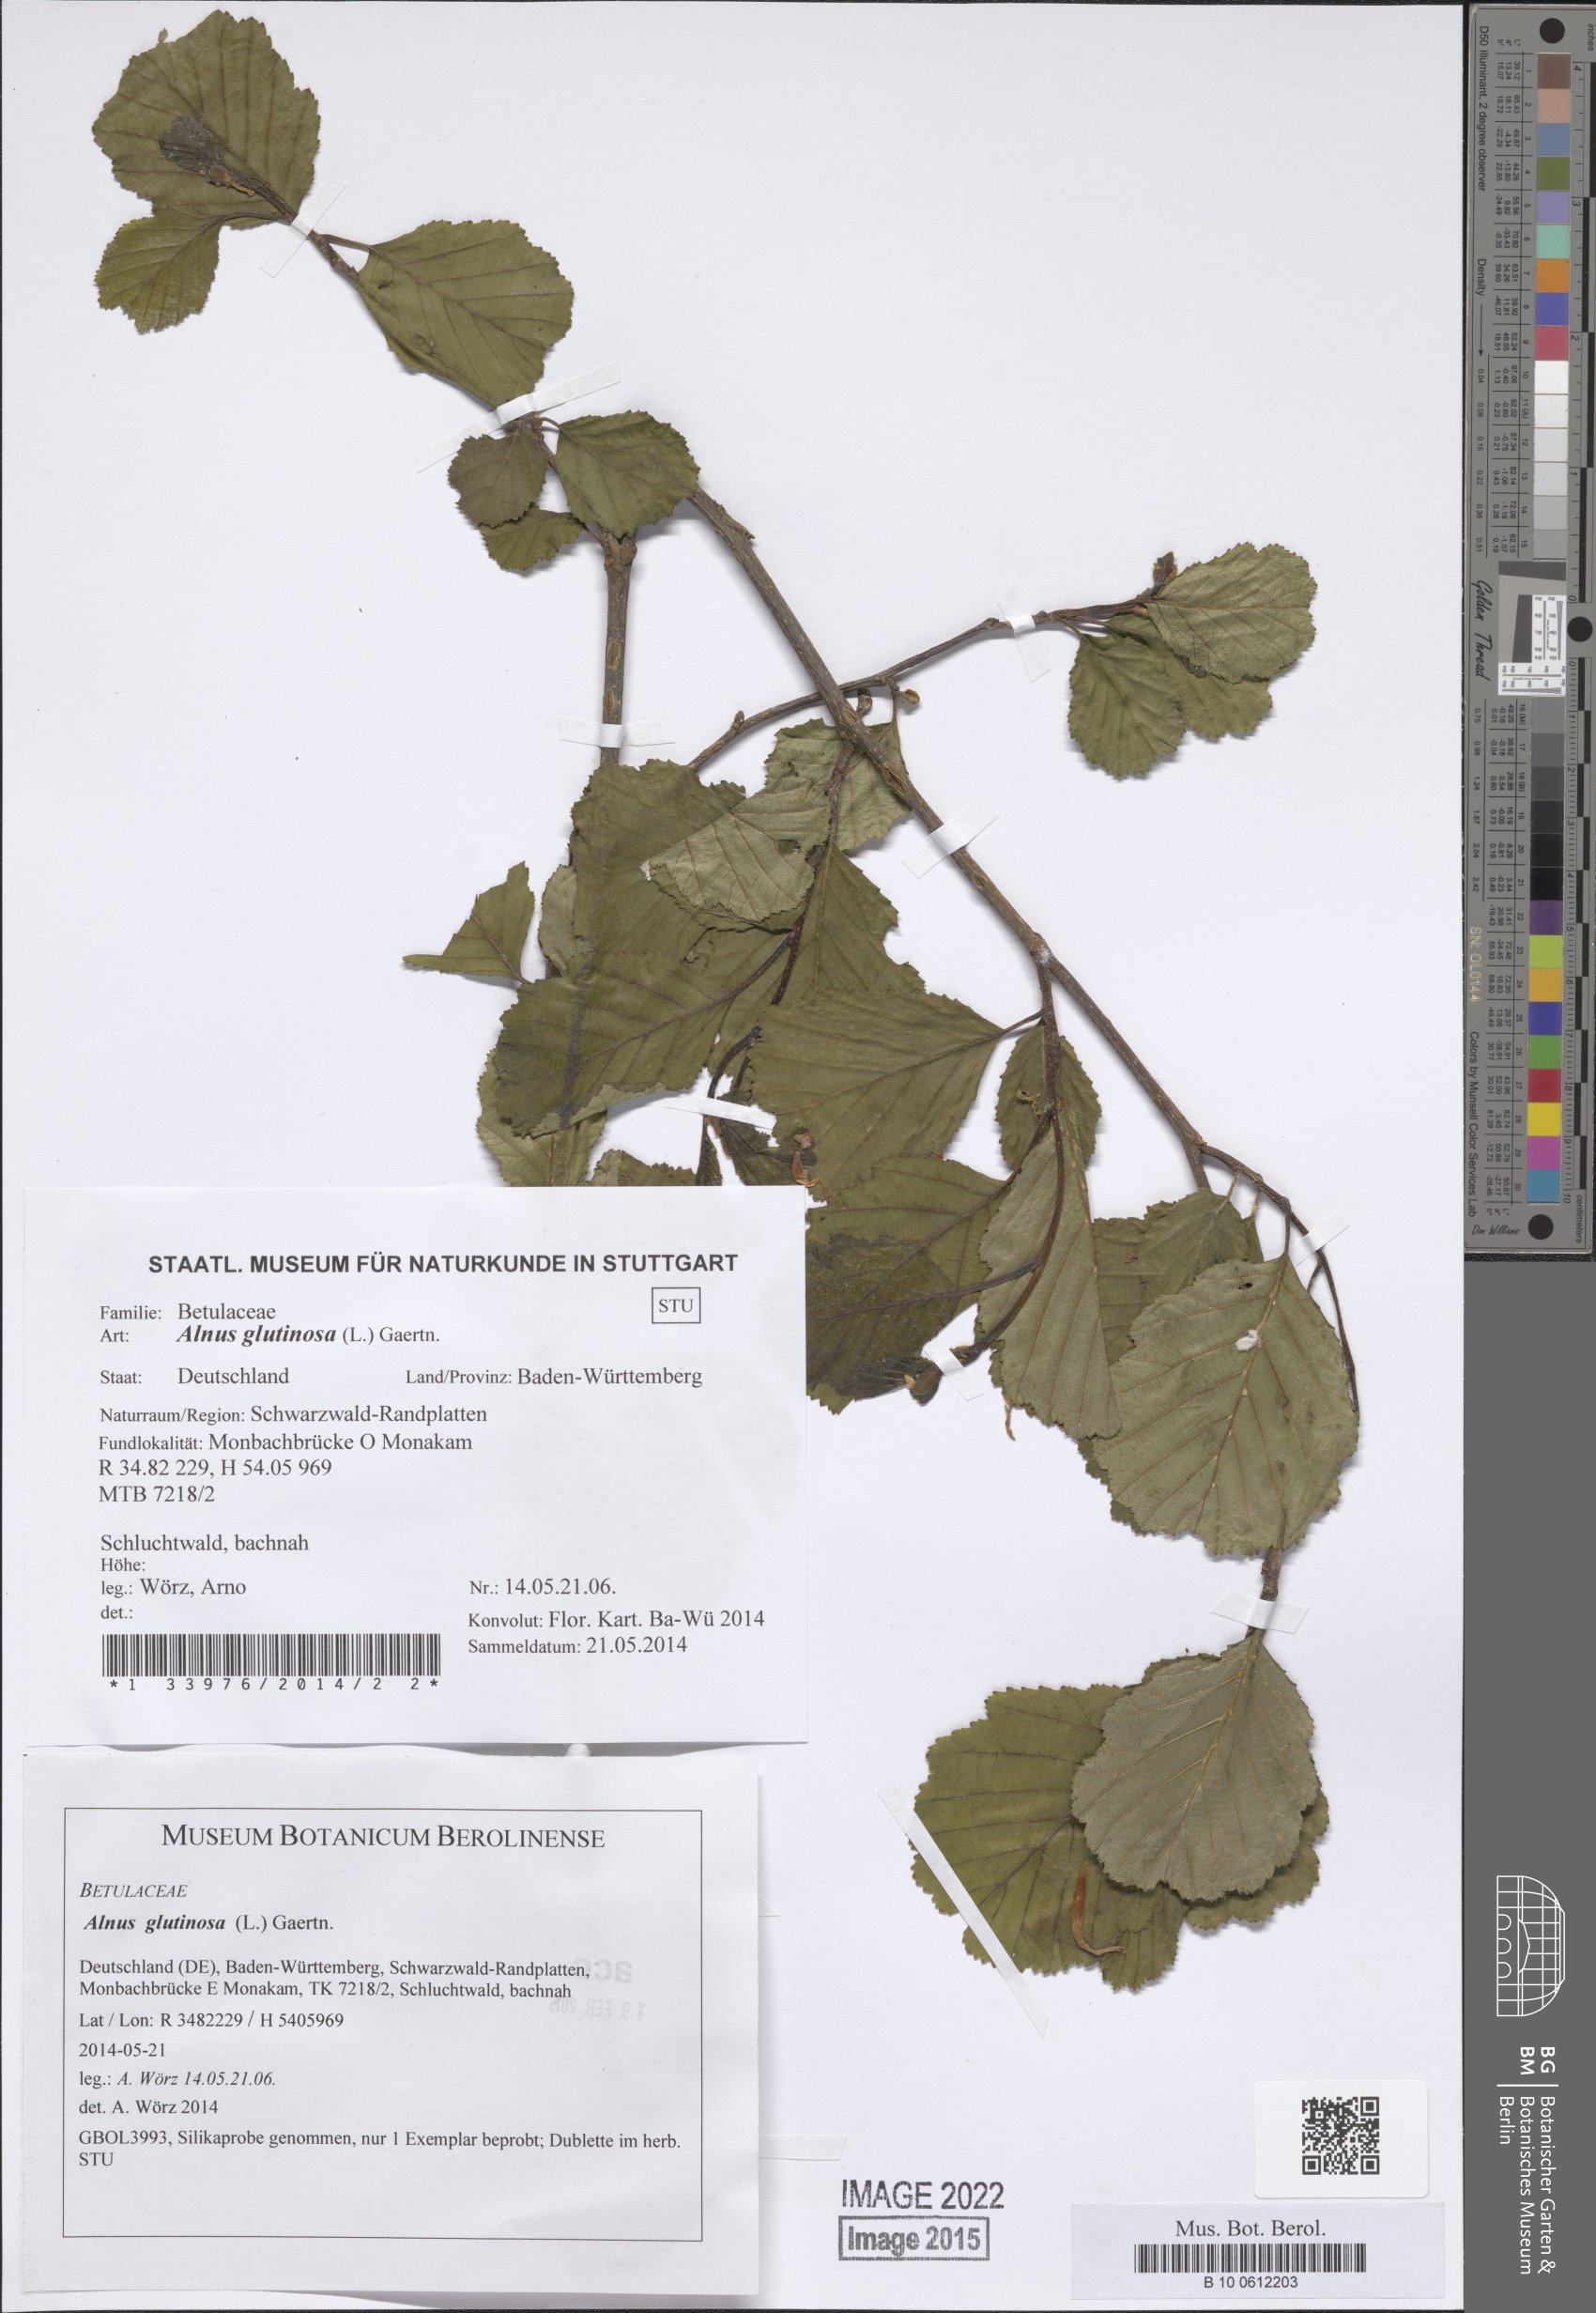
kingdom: Plantae
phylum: Tracheophyta
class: Magnoliopsida
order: Fagales
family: Betulaceae
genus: Alnus
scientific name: Alnus glutinosa
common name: Black alder
